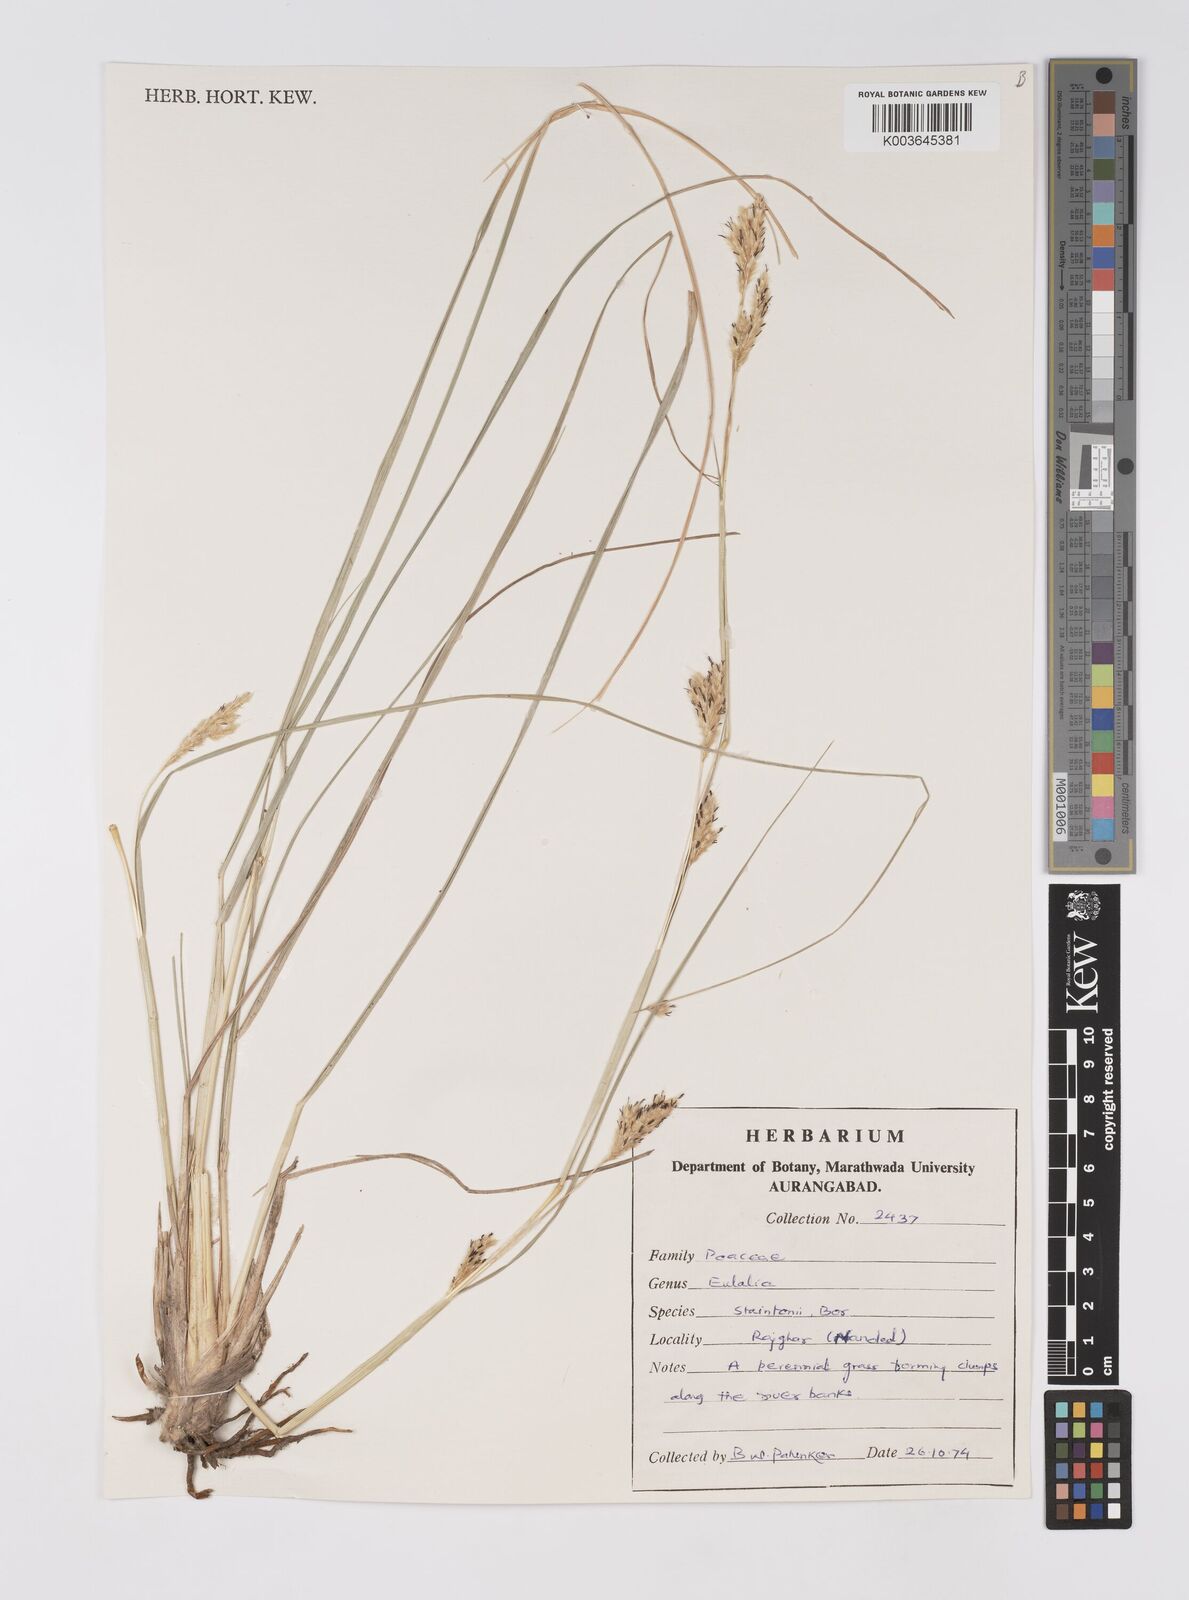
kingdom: Plantae
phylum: Tracheophyta
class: Liliopsida
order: Poales
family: Poaceae
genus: Eulaliopsis
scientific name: Eulaliopsis binata
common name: Baib grass
